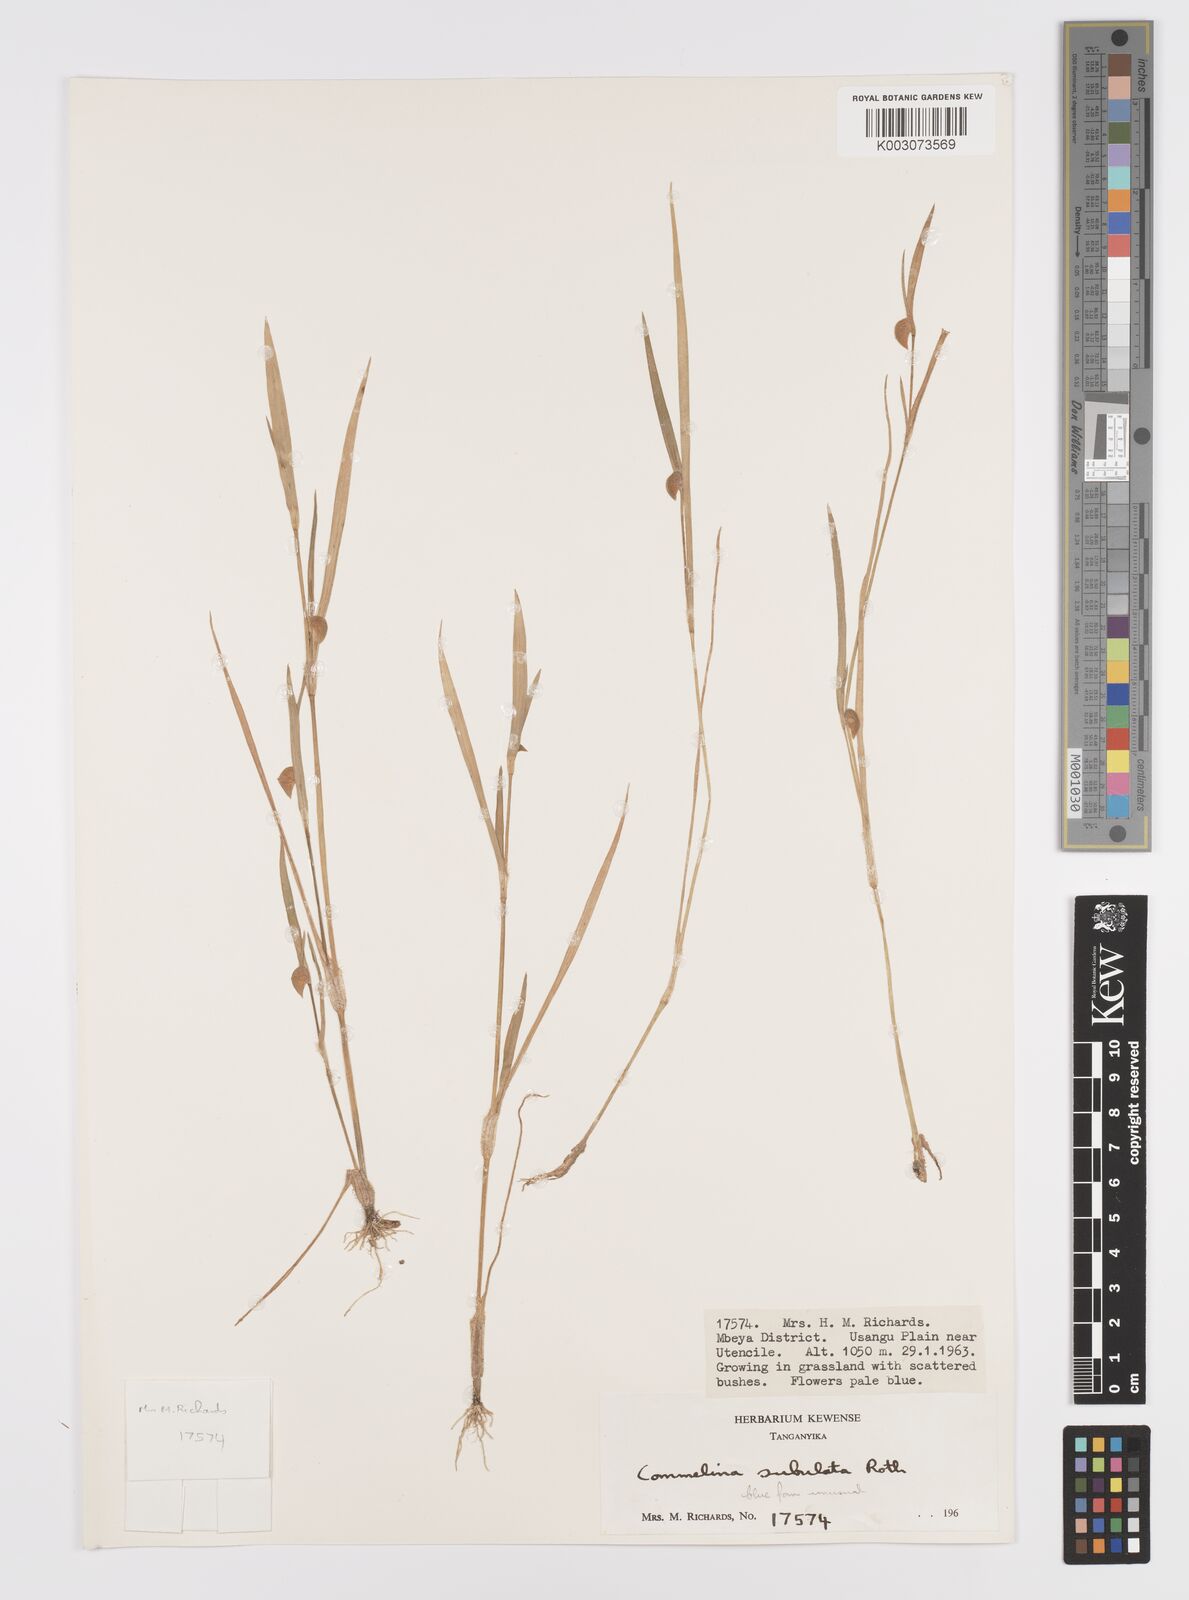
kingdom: Plantae
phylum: Tracheophyta
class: Liliopsida
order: Commelinales
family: Commelinaceae
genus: Commelina
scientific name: Commelina subulata
